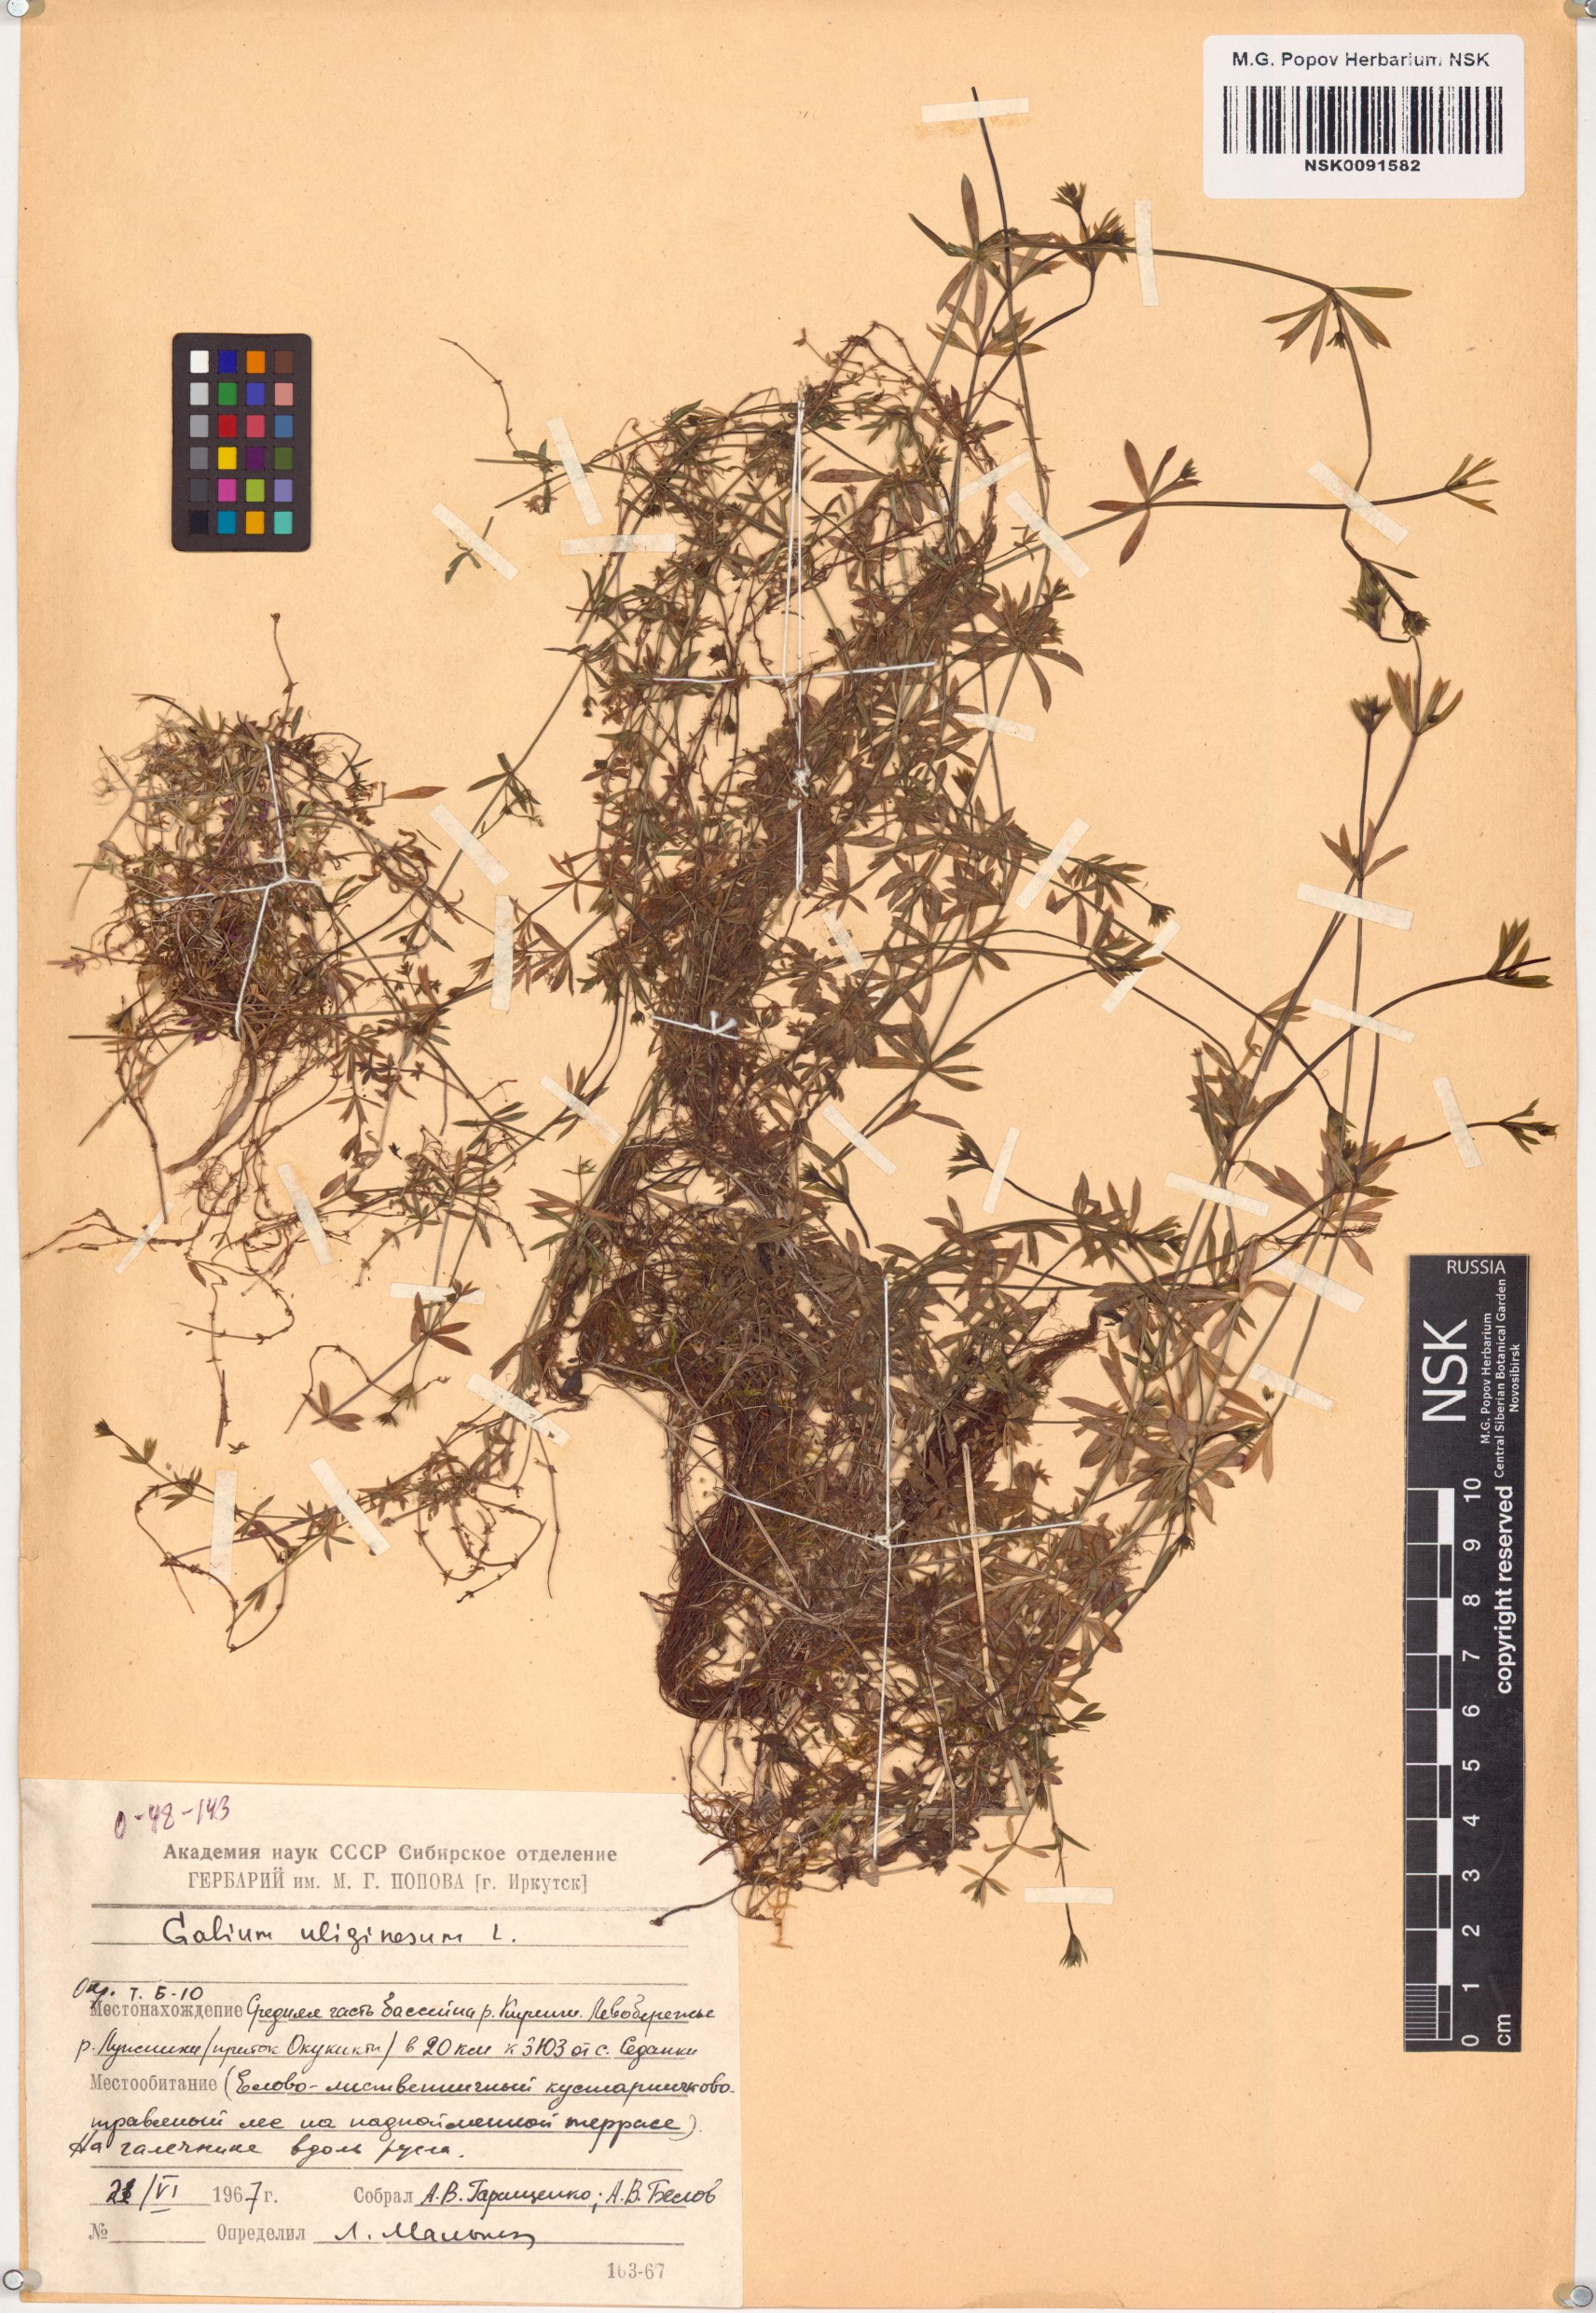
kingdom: Plantae
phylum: Tracheophyta
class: Magnoliopsida
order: Gentianales
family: Rubiaceae
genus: Galium
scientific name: Galium uliginosum
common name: Fen bedstraw
